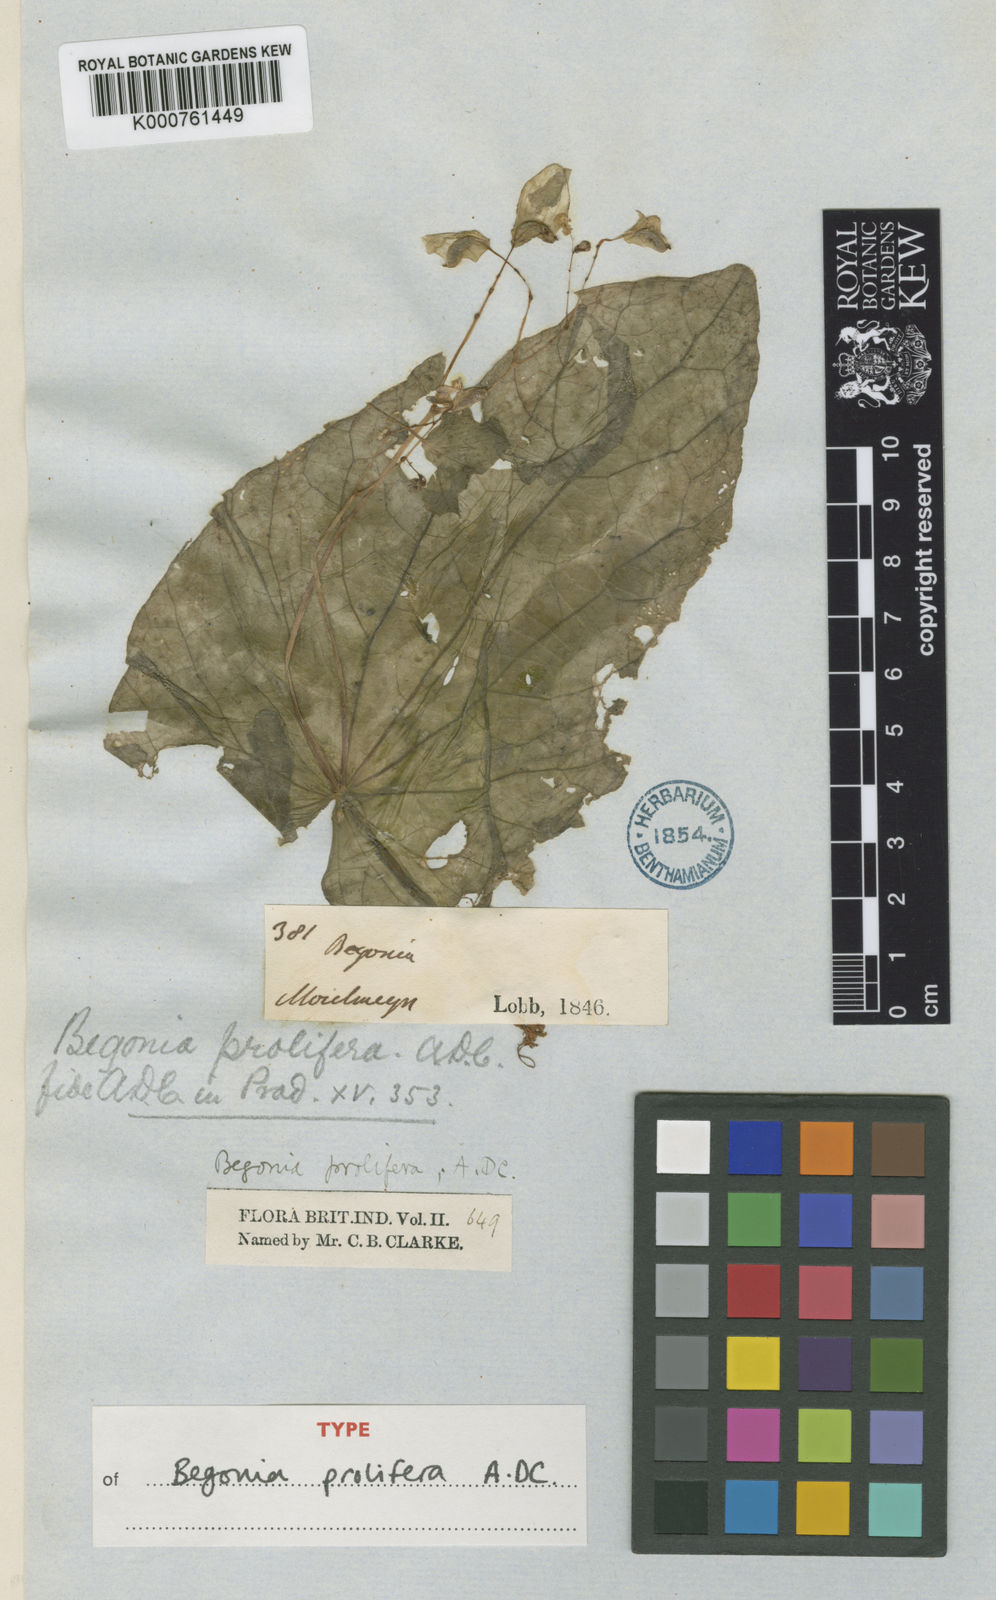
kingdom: Plantae
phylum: Tracheophyta
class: Magnoliopsida
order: Cucurbitales
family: Begoniaceae
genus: Begonia
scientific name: Begonia prolifera
